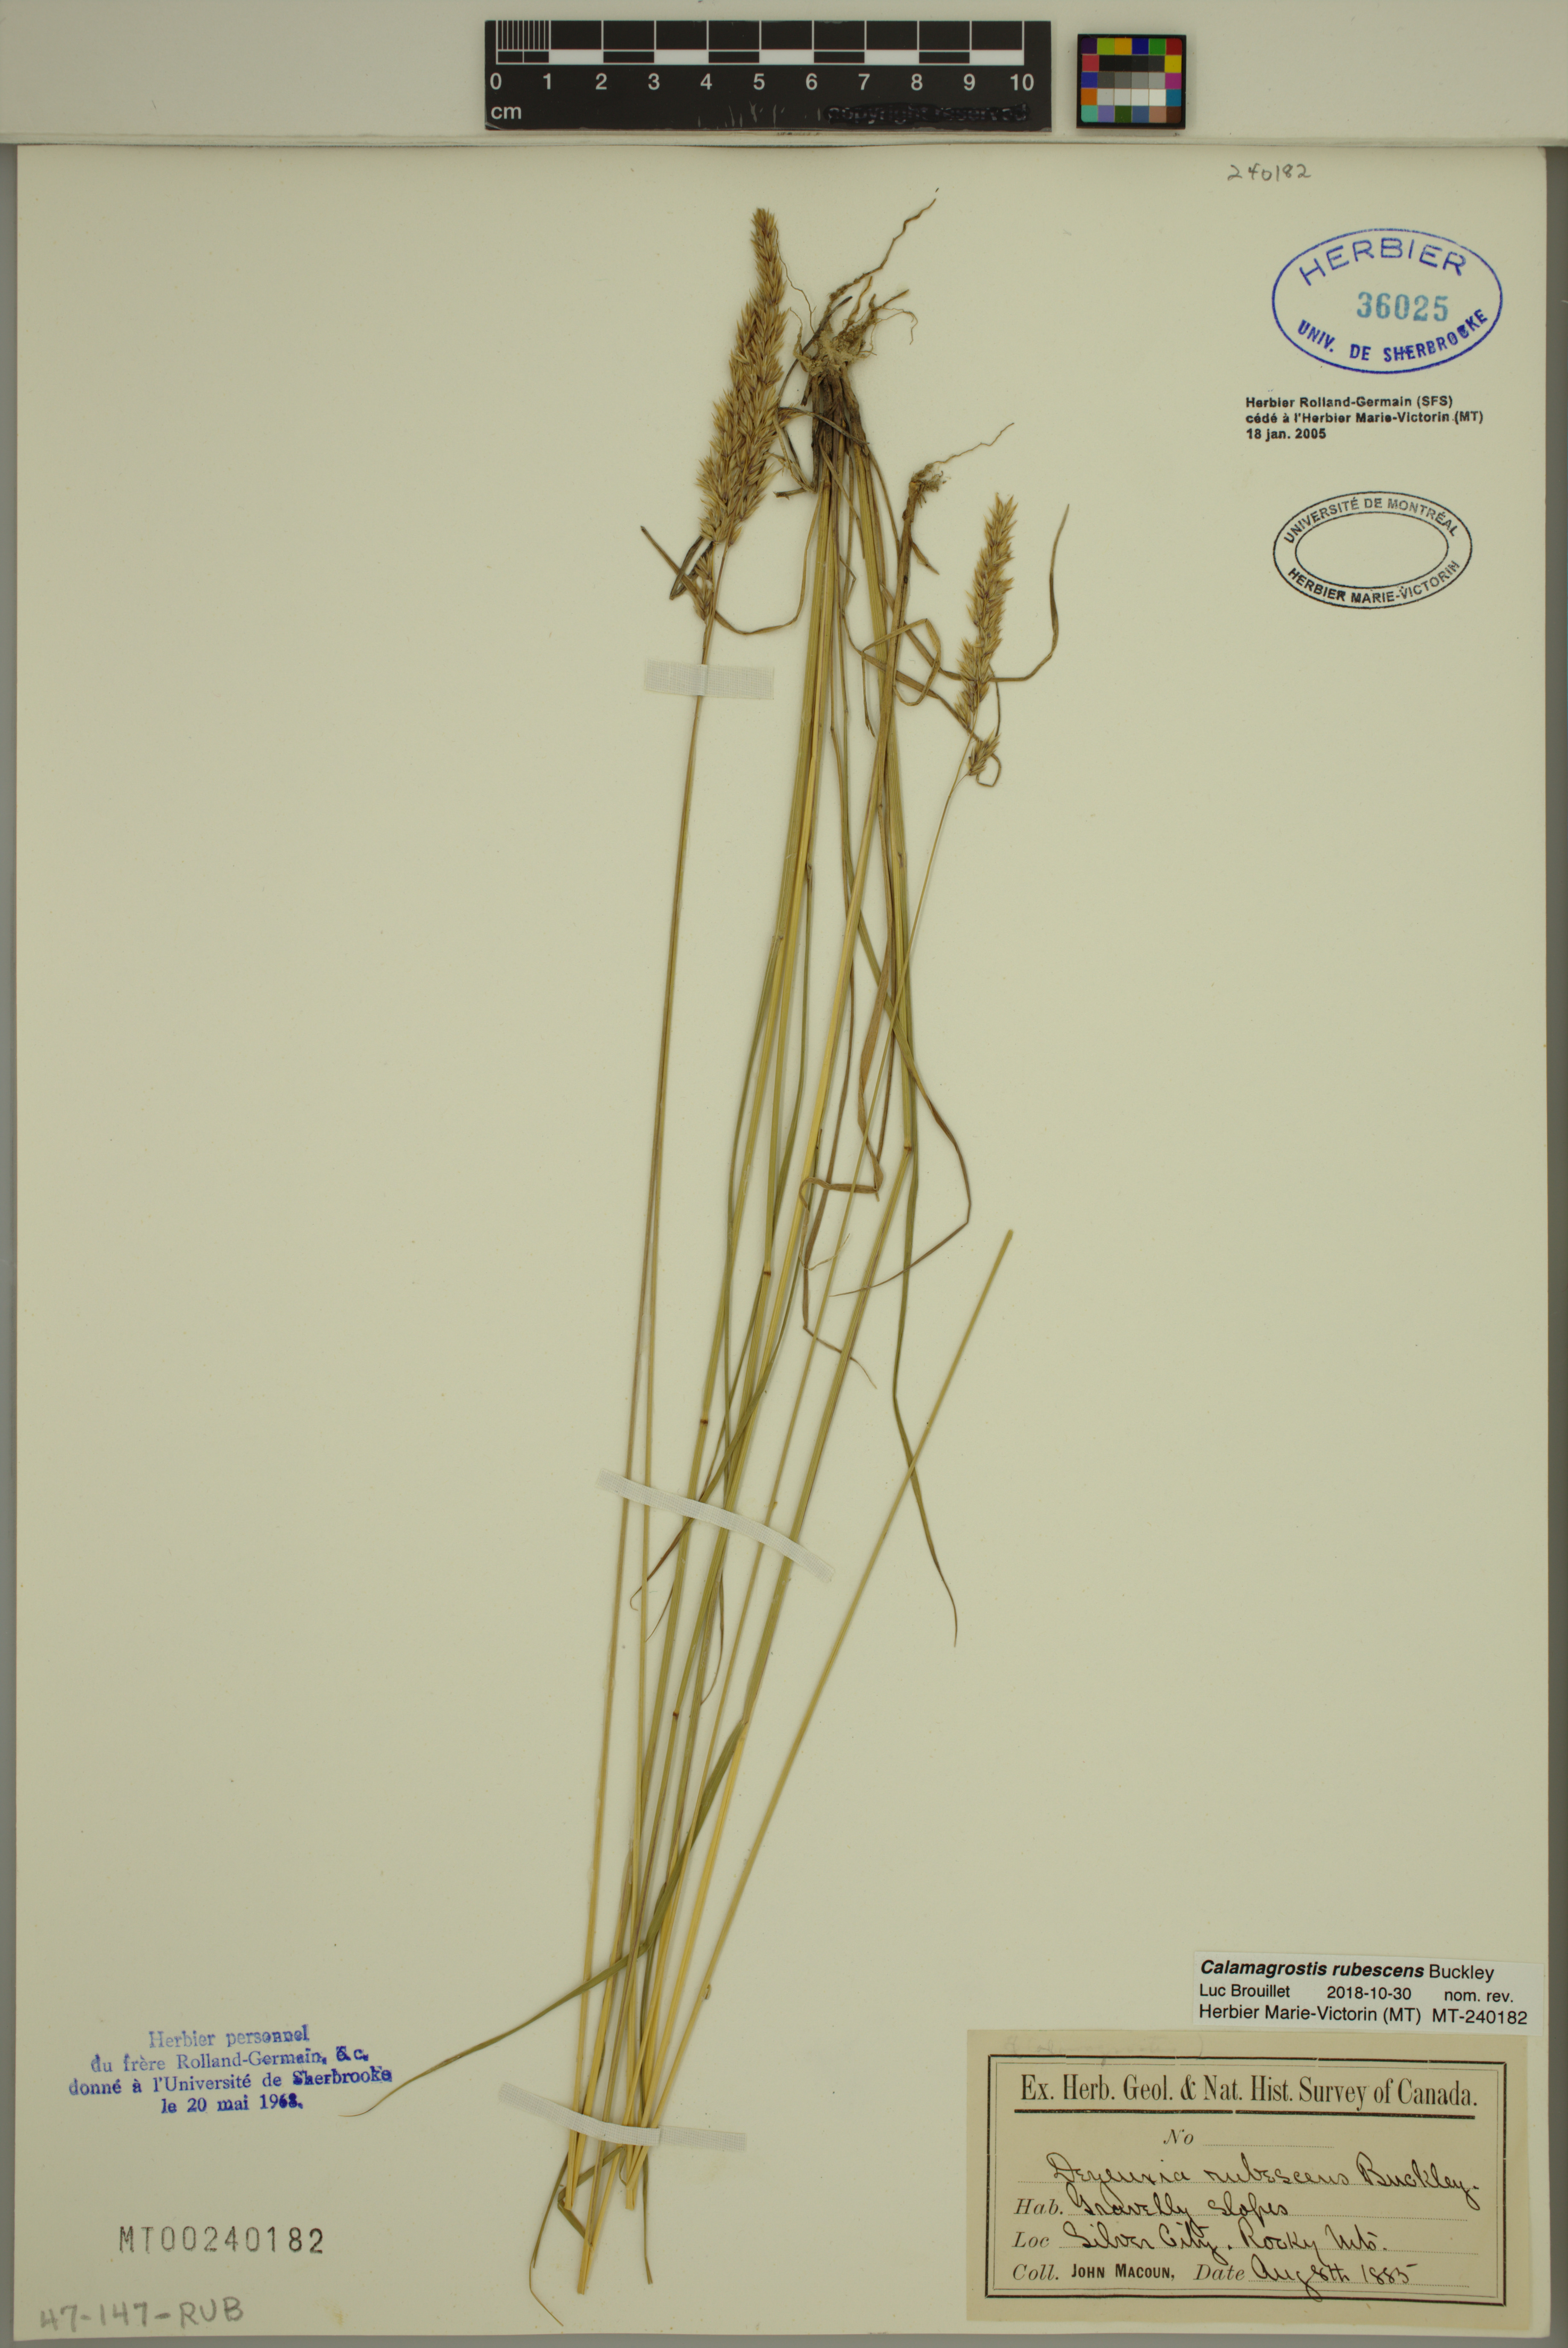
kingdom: Plantae
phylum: Tracheophyta
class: Liliopsida
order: Poales
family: Poaceae
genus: Calamagrostis
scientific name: Calamagrostis rubescens
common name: Pine grass
